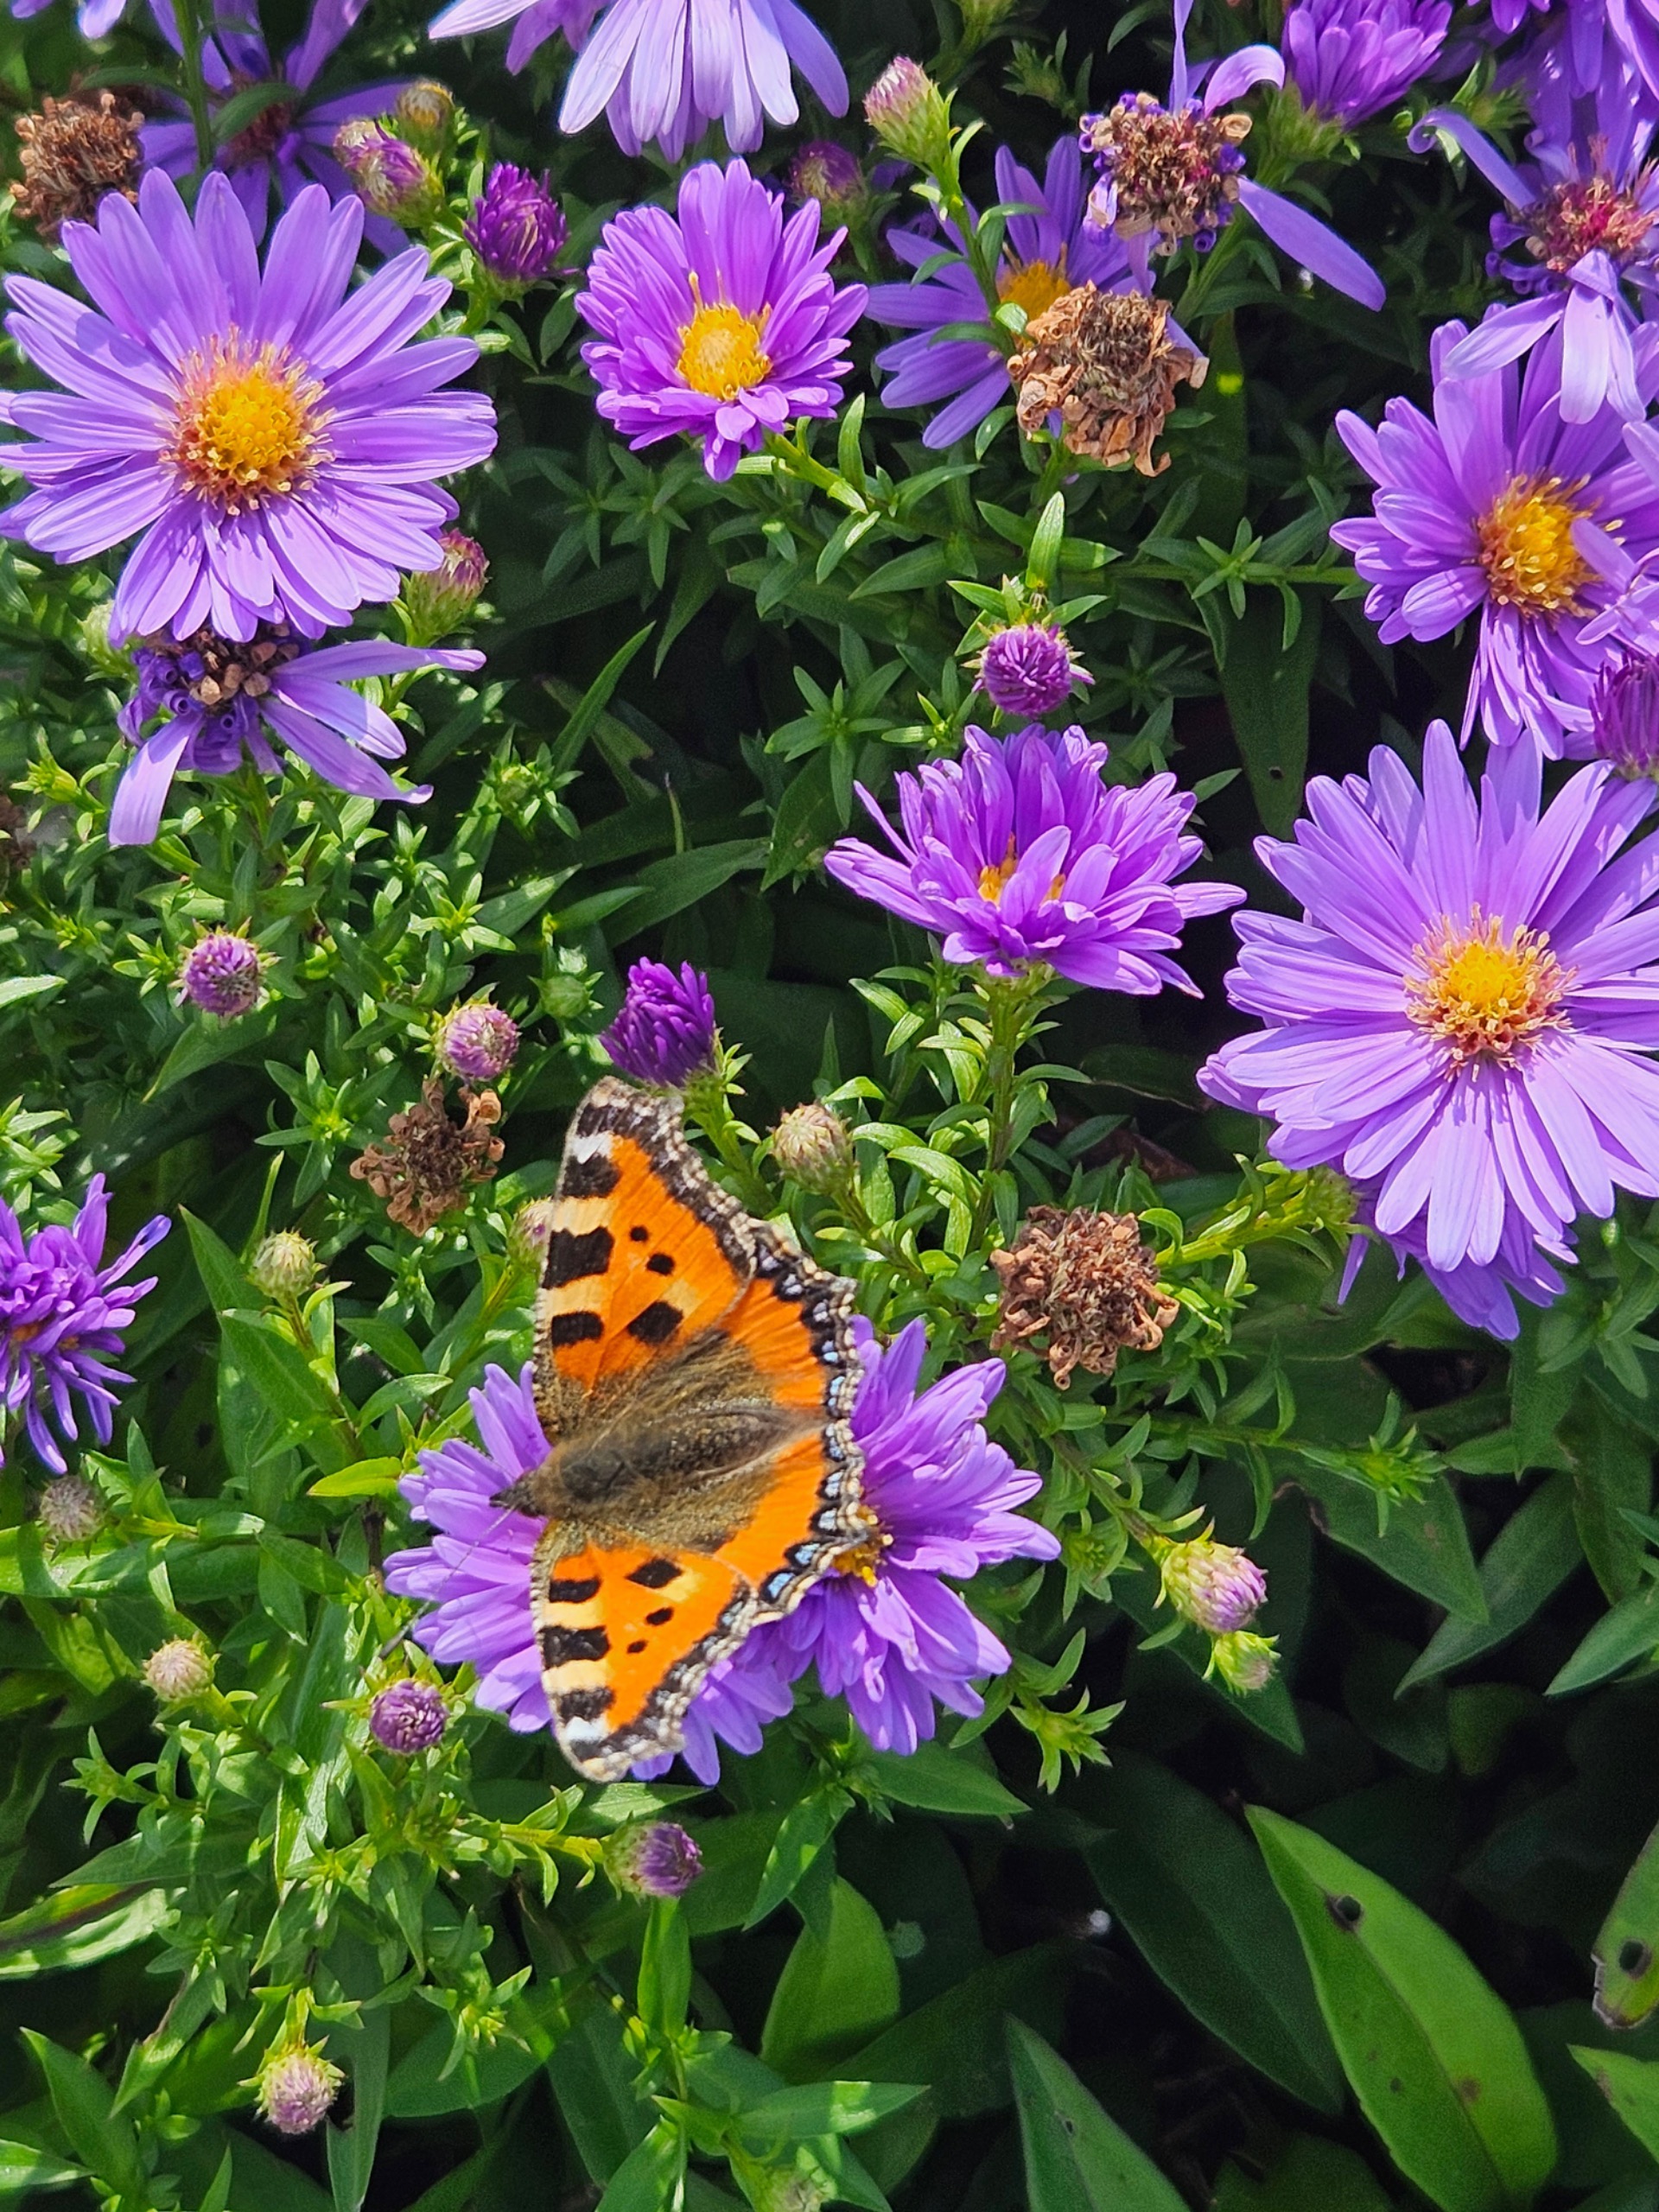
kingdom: Animalia
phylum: Arthropoda
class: Insecta
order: Lepidoptera
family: Nymphalidae
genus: Aglais
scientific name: Aglais urticae
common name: Nældens takvinge
